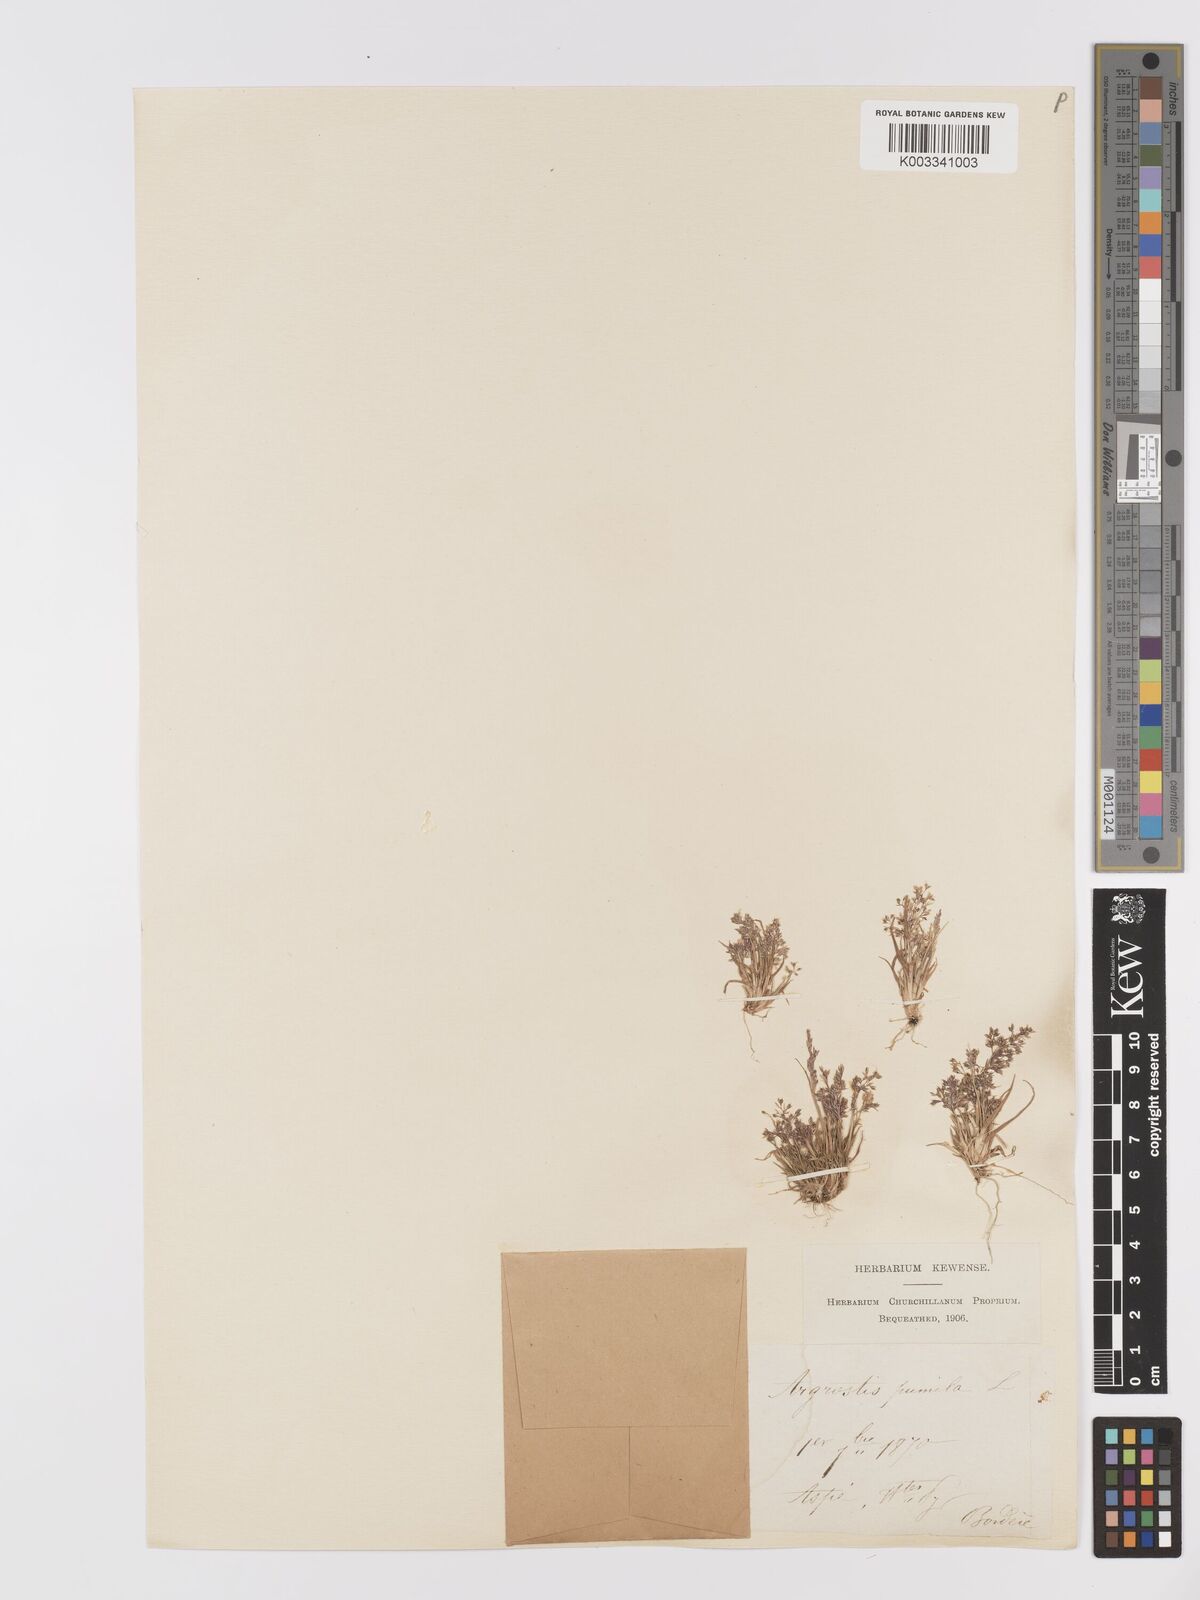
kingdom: Plantae
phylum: Tracheophyta
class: Liliopsida
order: Poales
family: Poaceae
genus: Agrostis
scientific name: Agrostis capillaris
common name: Colonial bentgrass
